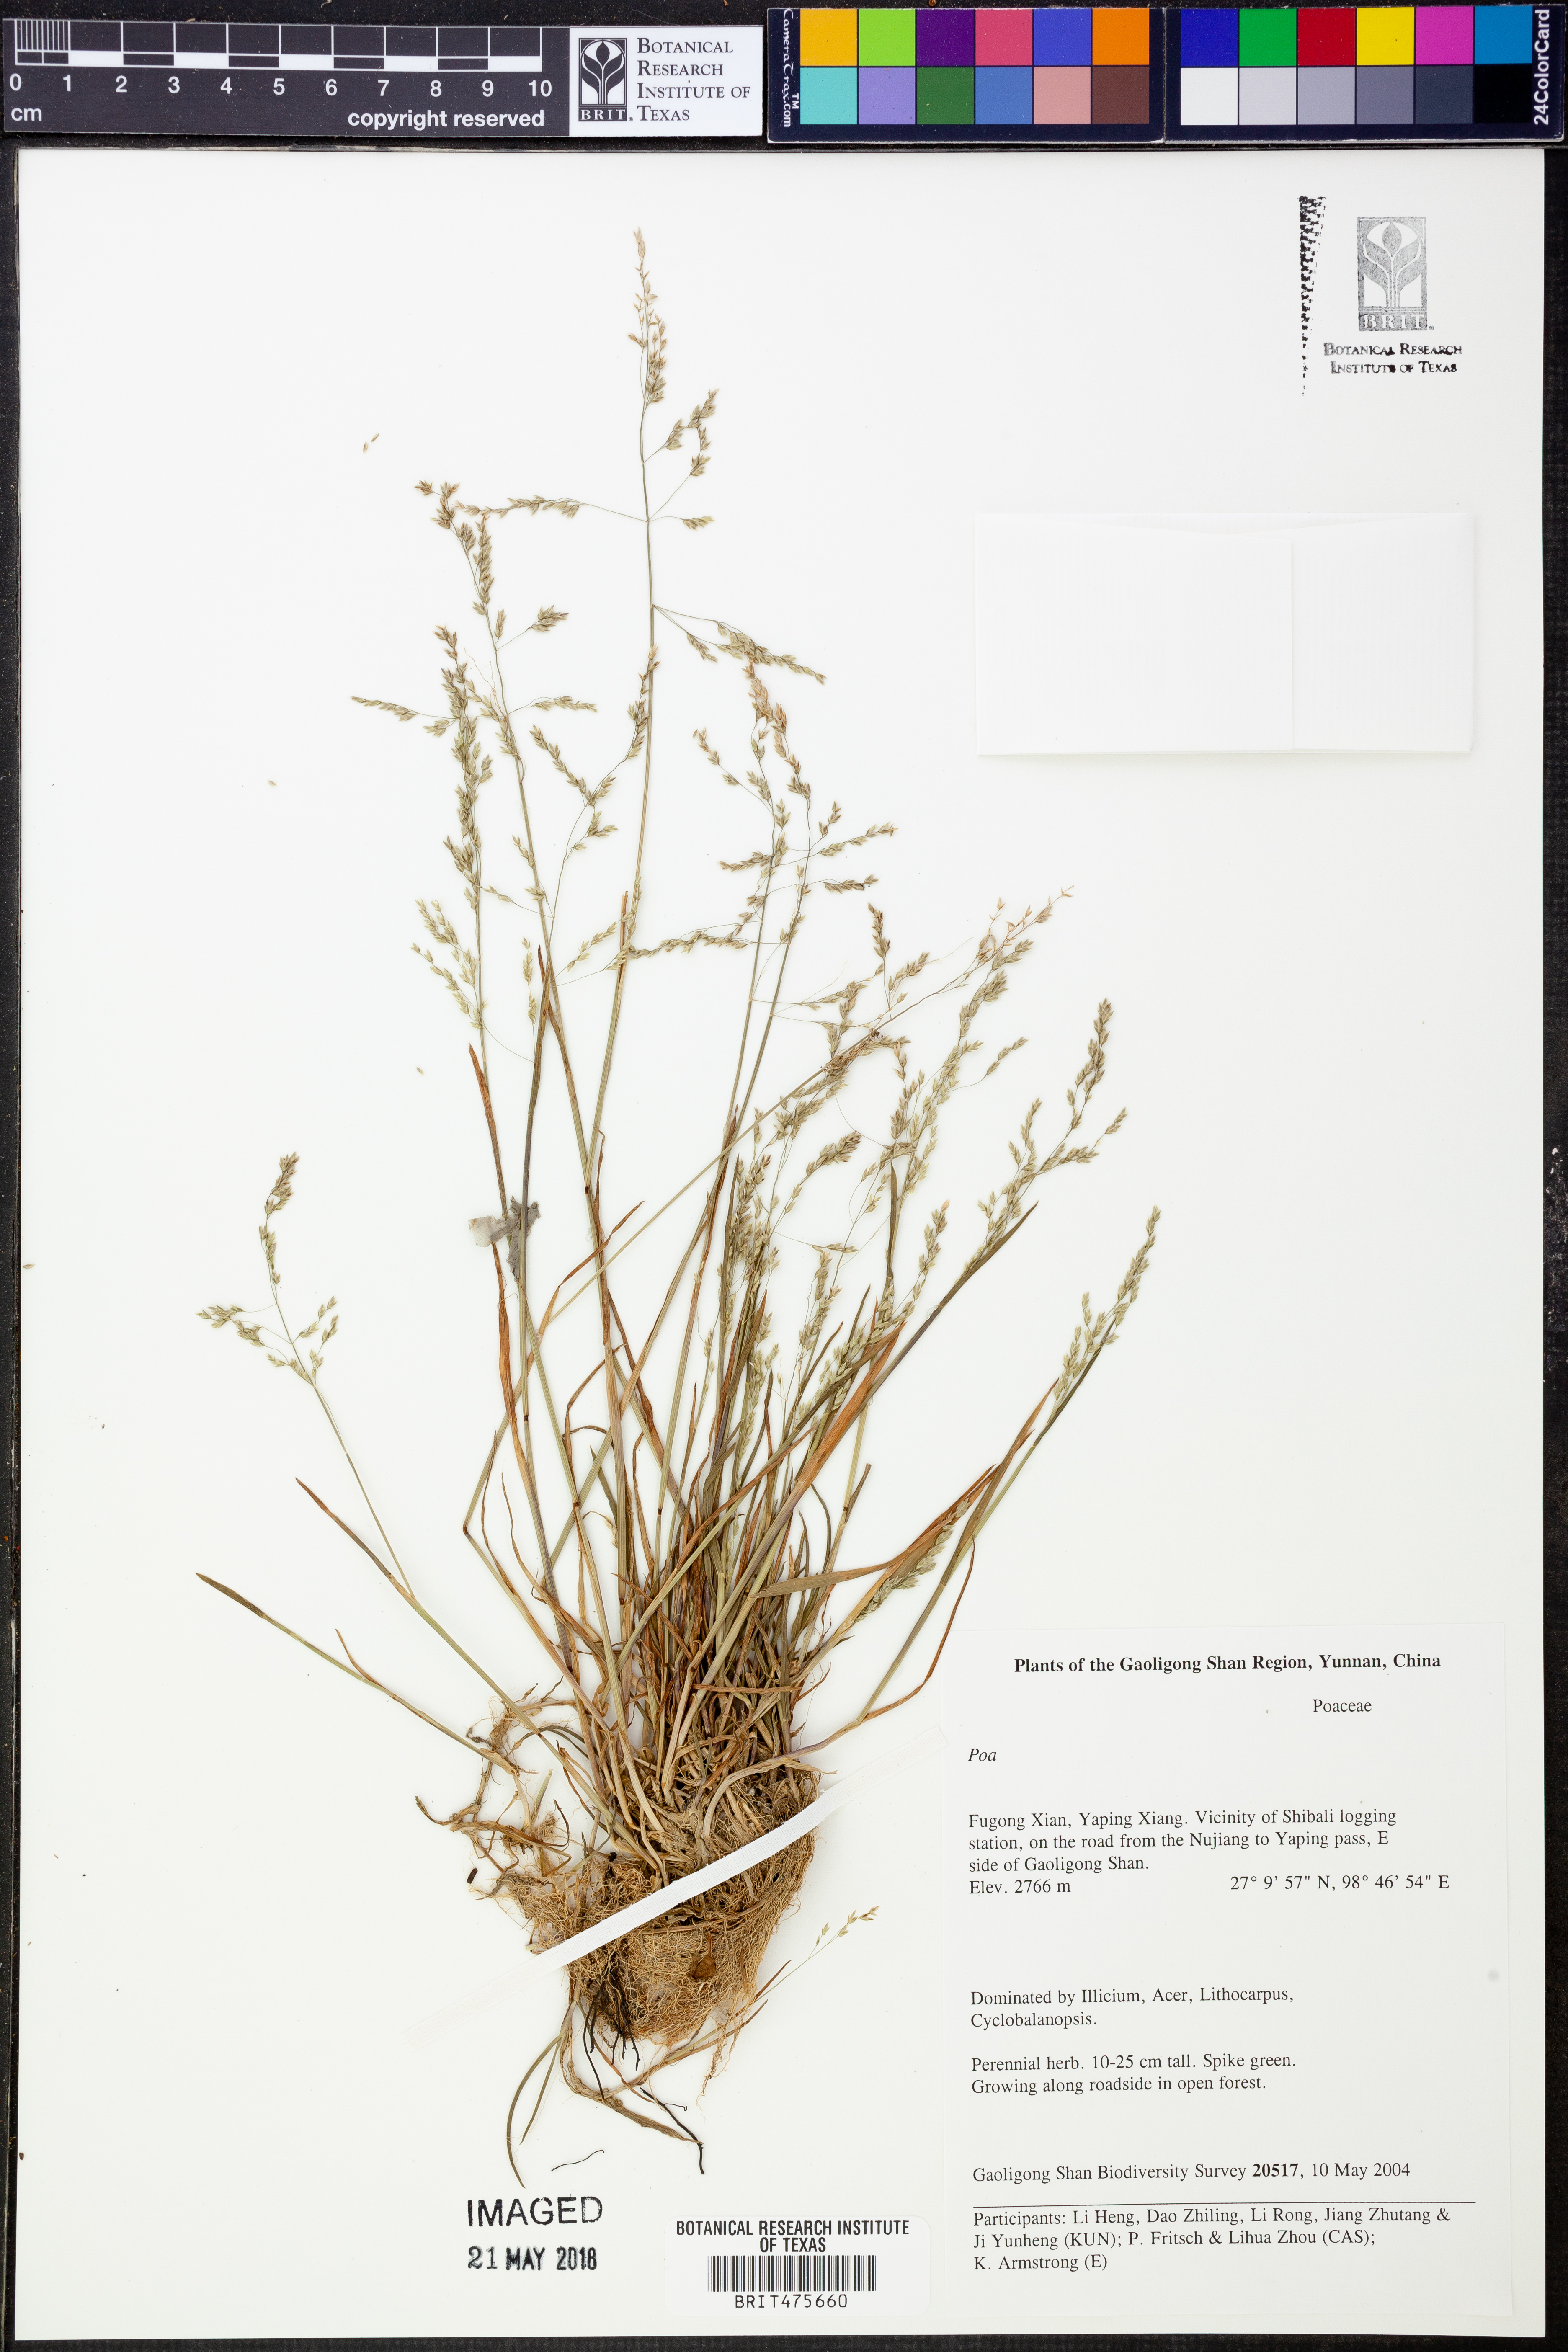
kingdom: Plantae
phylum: Tracheophyta
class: Liliopsida
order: Poales
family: Poaceae
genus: Poa
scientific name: Poa
